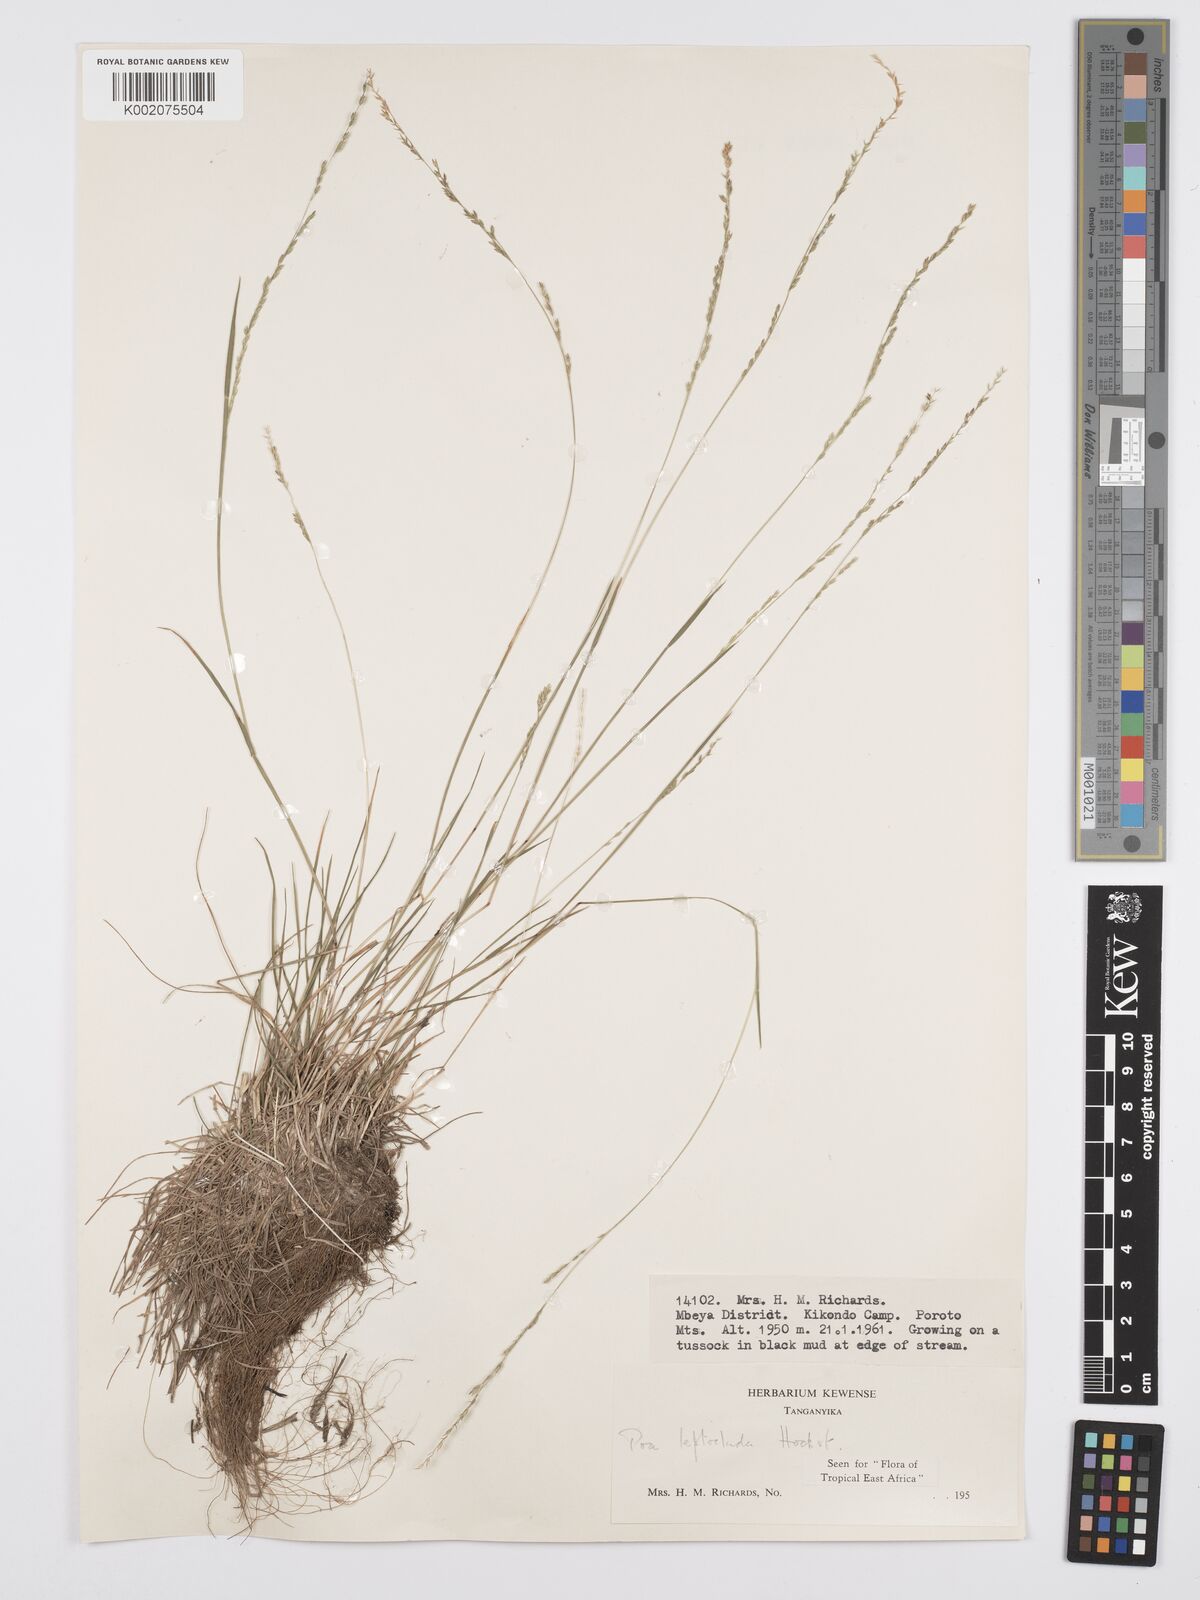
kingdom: Plantae
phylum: Tracheophyta
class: Liliopsida
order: Poales
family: Poaceae
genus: Poa
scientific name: Poa leptoclada
